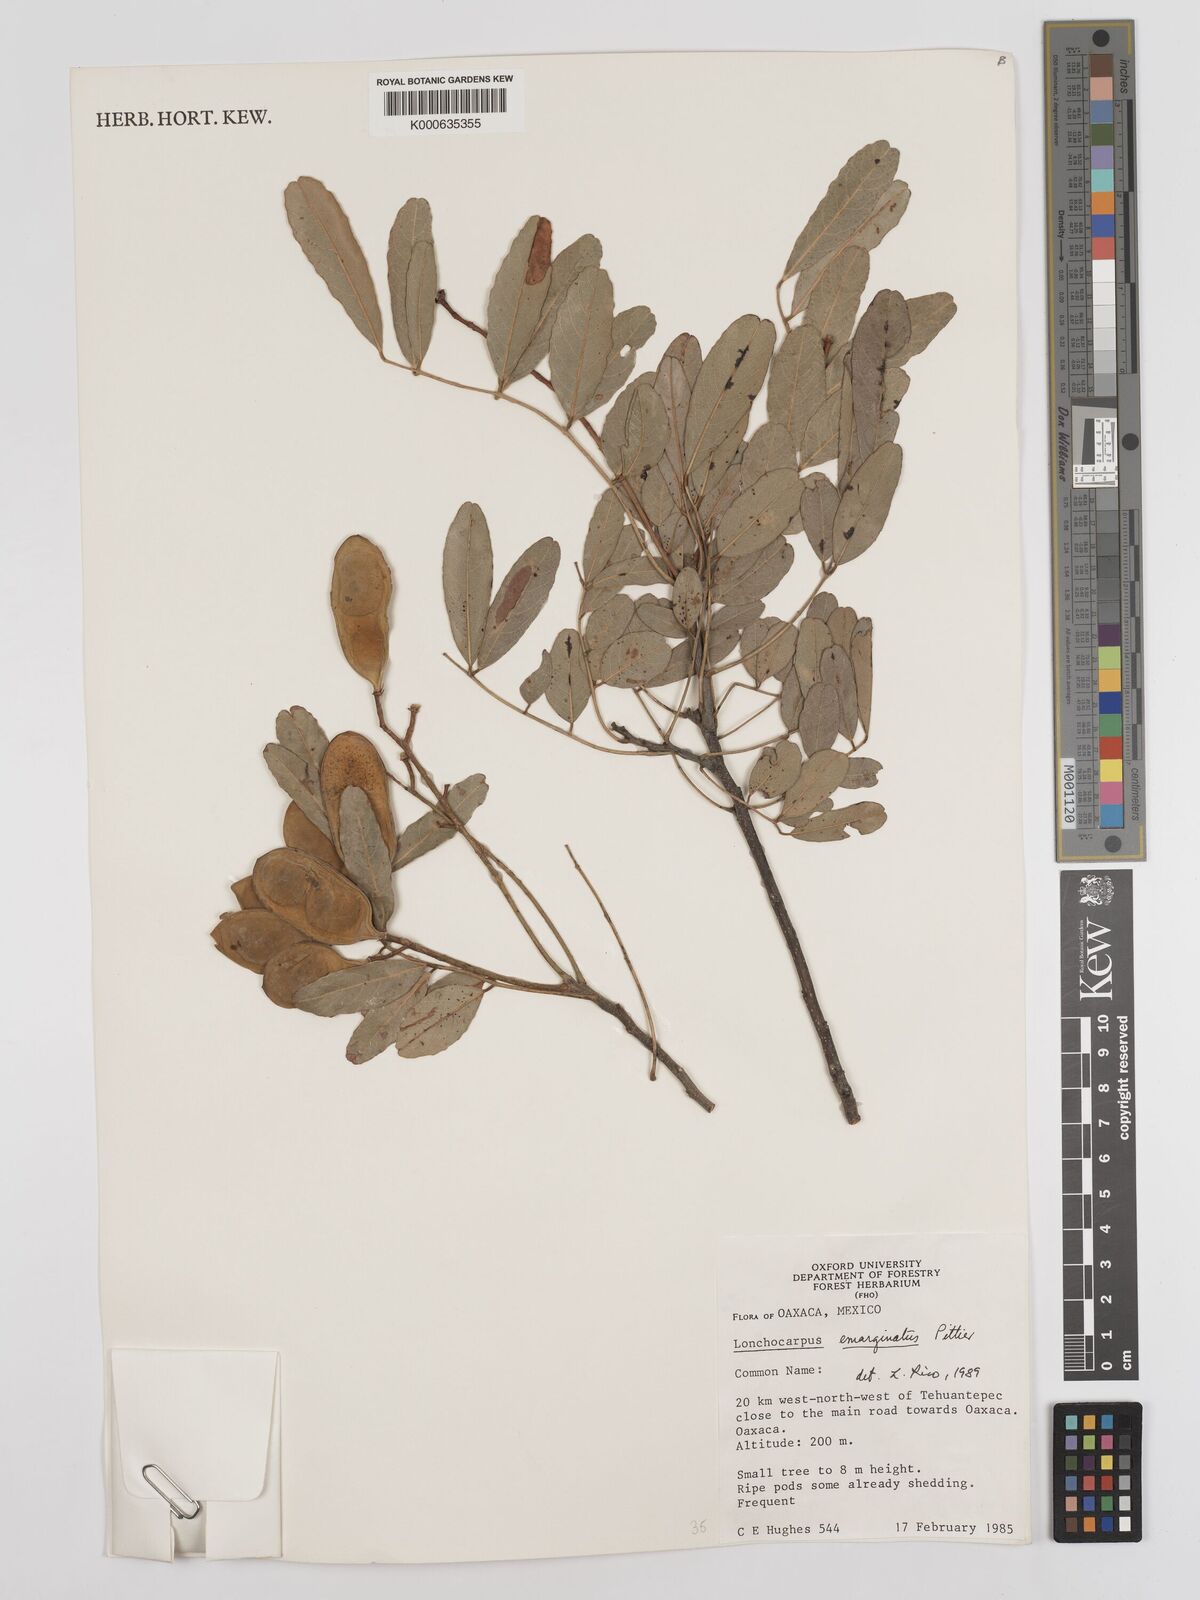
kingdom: Plantae
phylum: Tracheophyta
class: Magnoliopsida
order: Fabales
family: Fabaceae
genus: Lonchocarpus
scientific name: Lonchocarpus emarginatus
